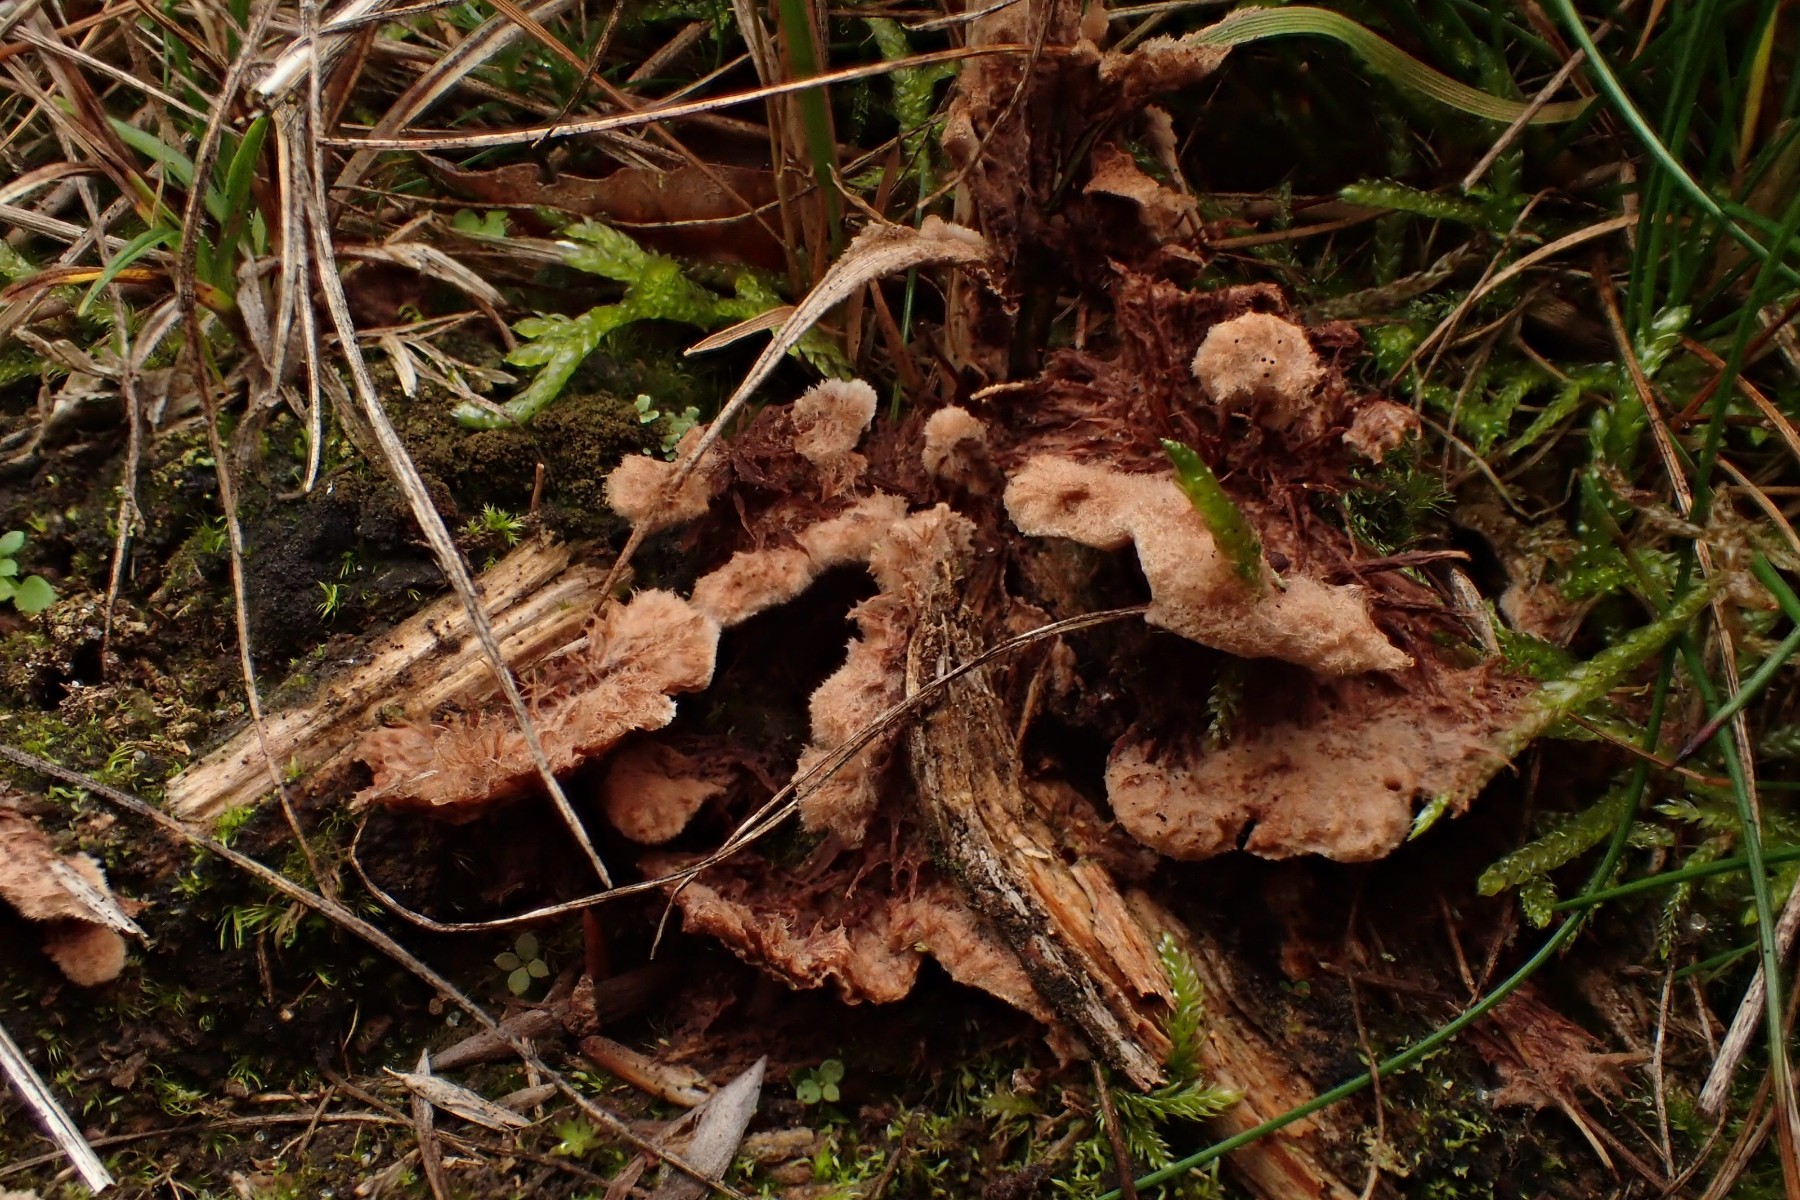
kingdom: Fungi
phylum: Basidiomycota
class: Agaricomycetes
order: Thelephorales
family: Thelephoraceae
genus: Thelephora
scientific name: Thelephora terrestris
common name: fliget frynsesvamp
